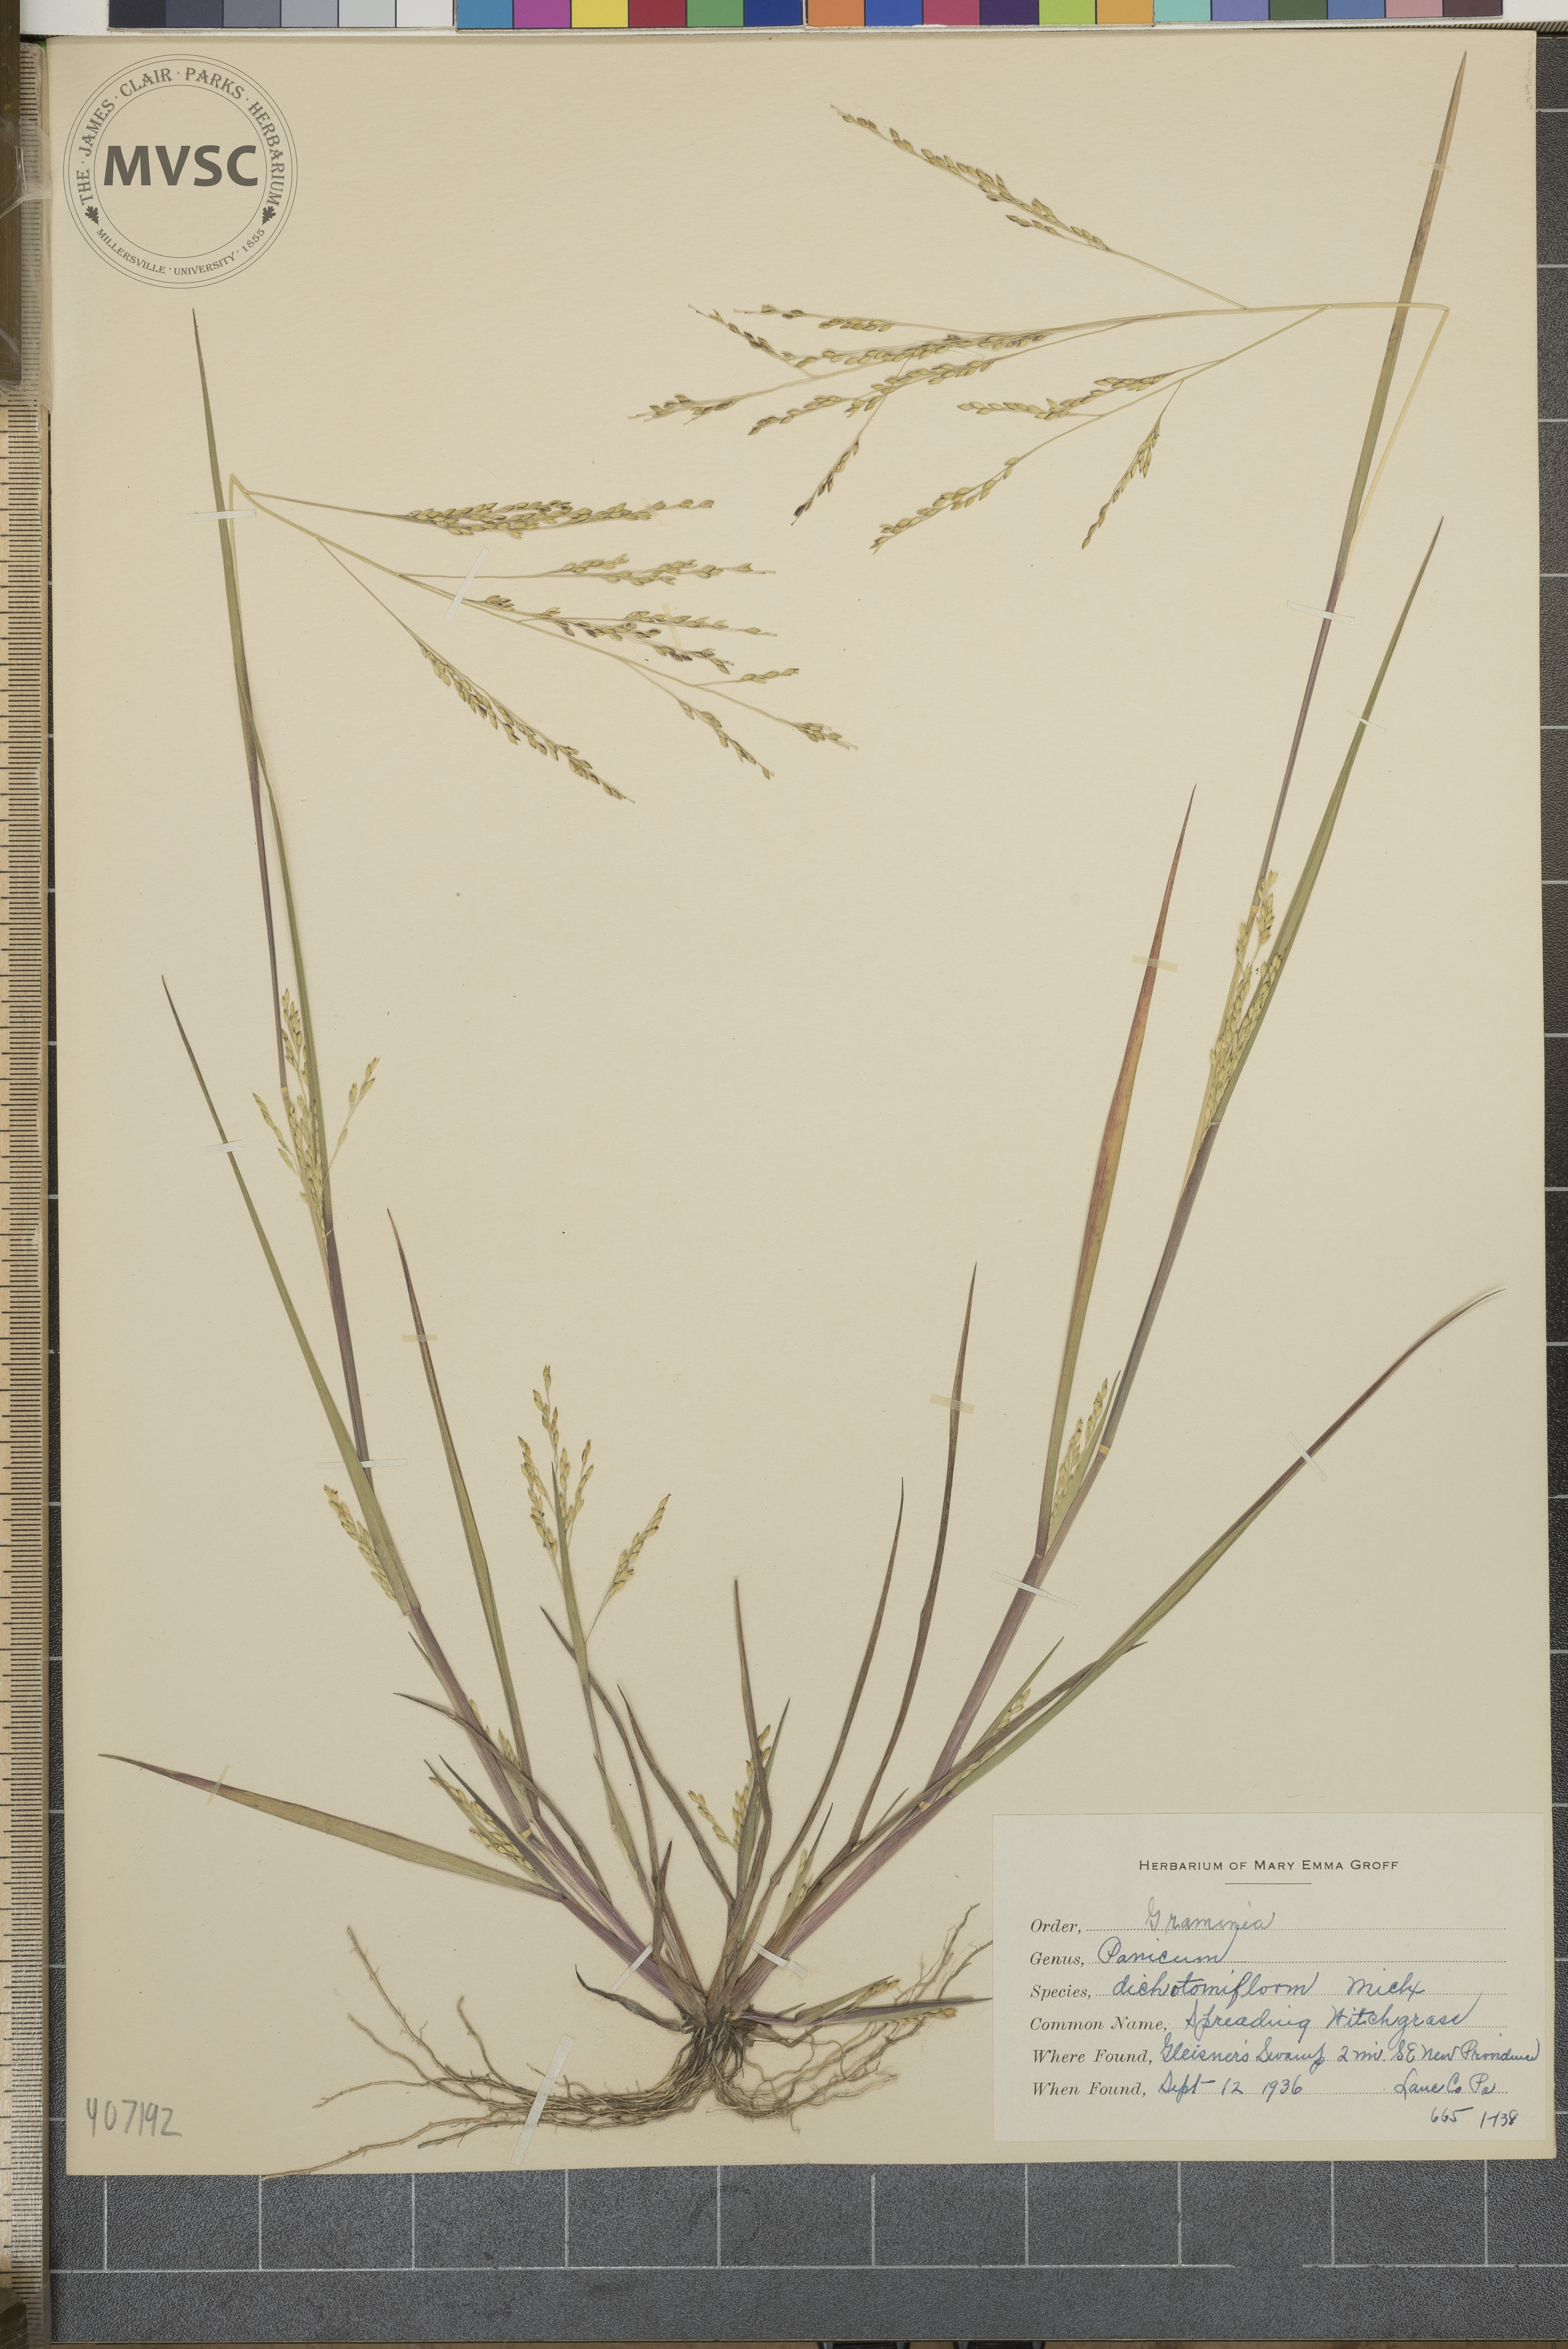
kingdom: Plantae
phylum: Tracheophyta
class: Liliopsida
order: Poales
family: Poaceae
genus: Panicum
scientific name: Panicum dichotomiflorum
